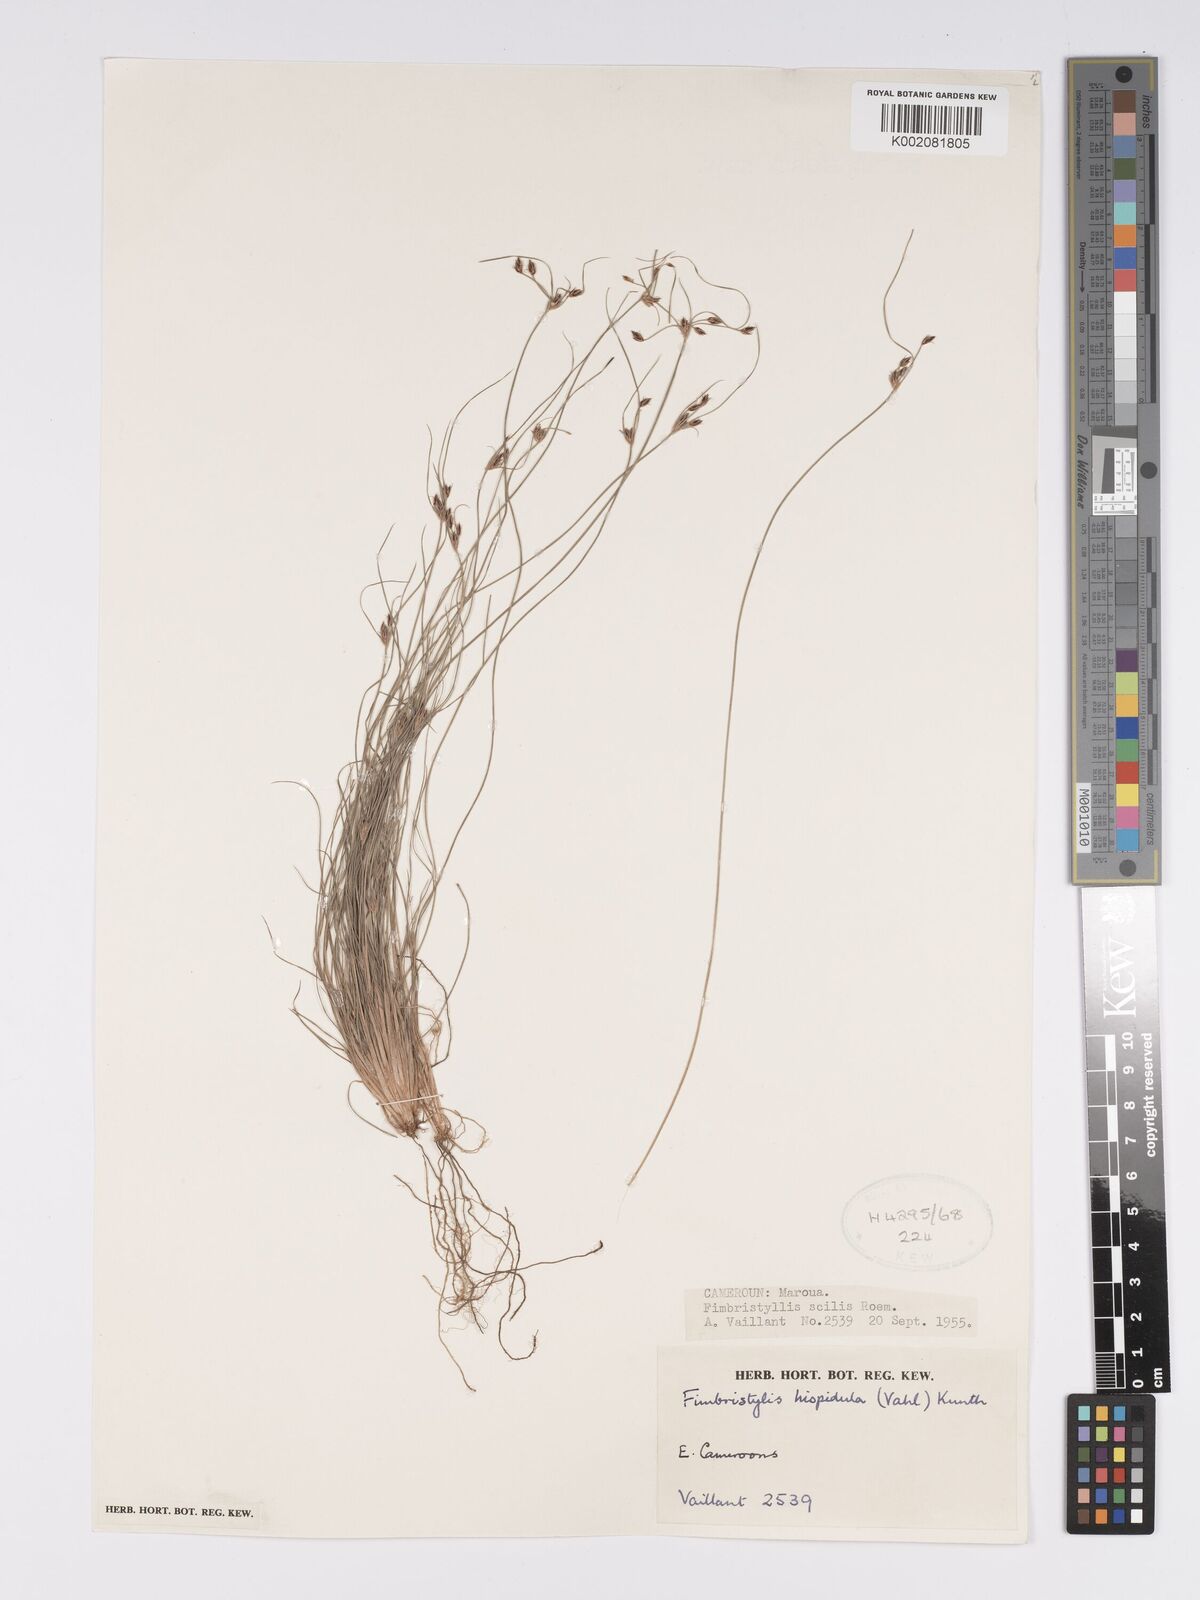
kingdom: Plantae
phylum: Tracheophyta
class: Liliopsida
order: Poales
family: Cyperaceae
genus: Bulbostylis
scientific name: Bulbostylis hispidula
